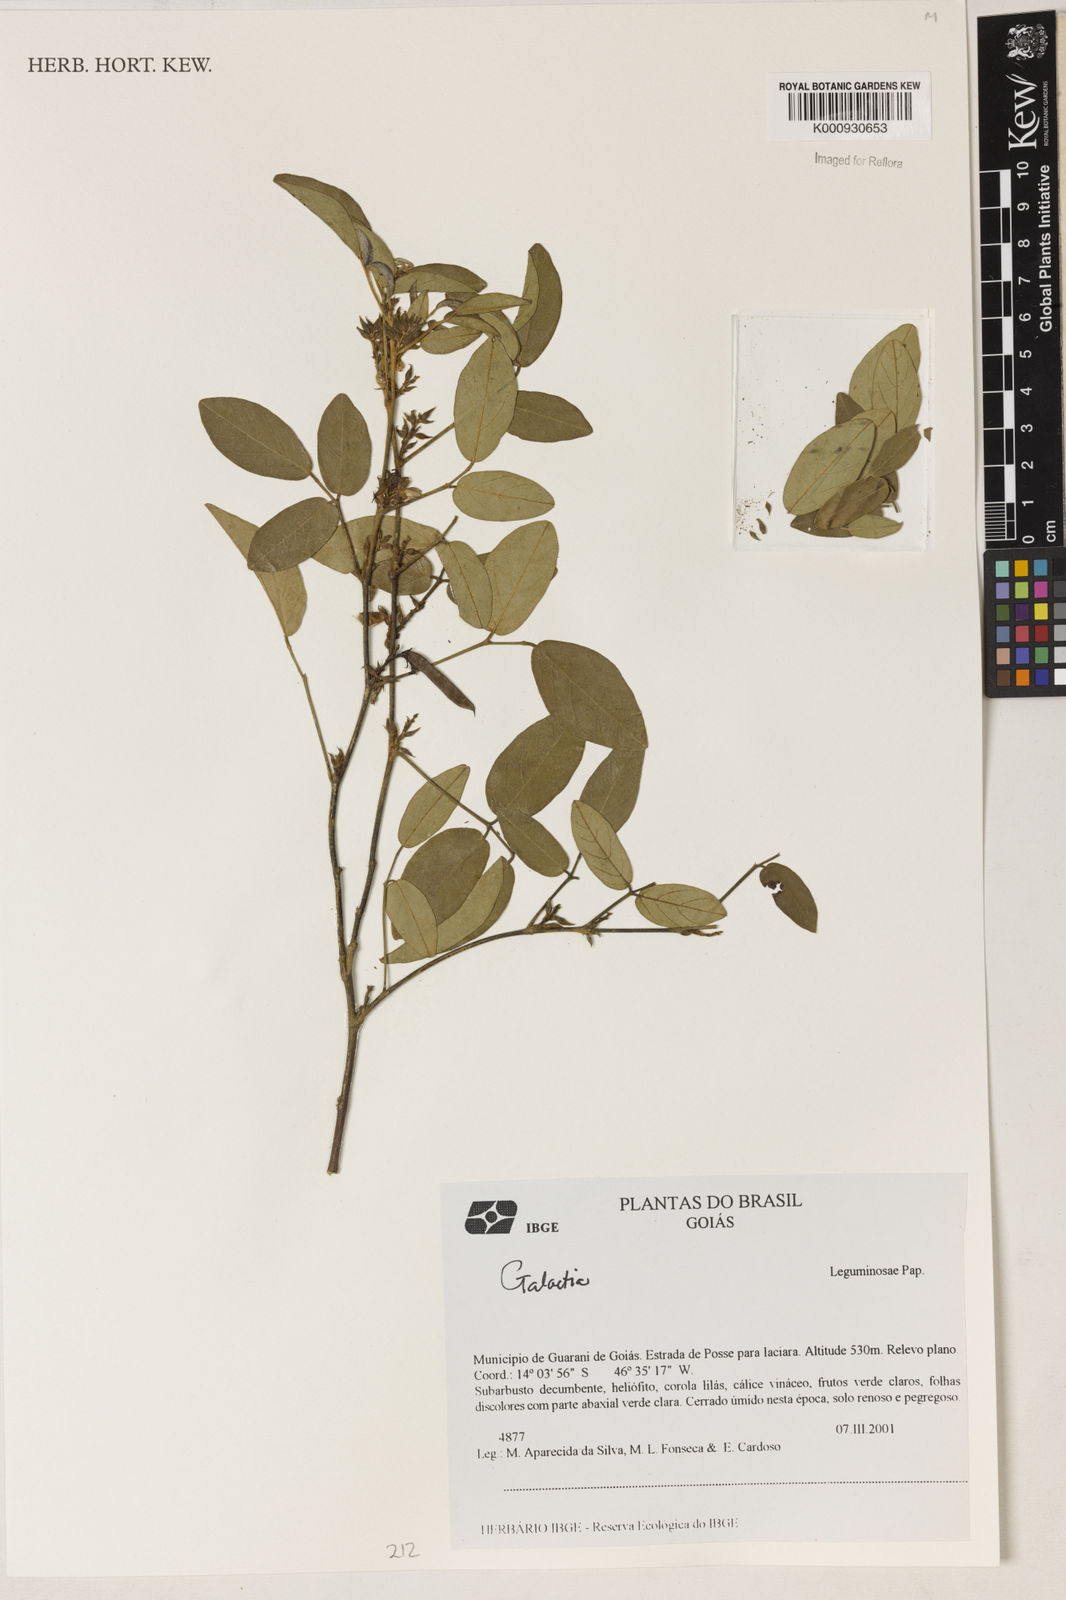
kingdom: Plantae
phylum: Tracheophyta
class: Magnoliopsida
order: Fabales
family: Fabaceae
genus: Galactia
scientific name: Galactia
